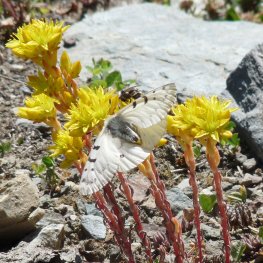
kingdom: Animalia
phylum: Arthropoda
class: Insecta
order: Lepidoptera
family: Papilionidae
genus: Parnassius
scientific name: Parnassius smintheus
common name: Rocky Mountain Parnassian
